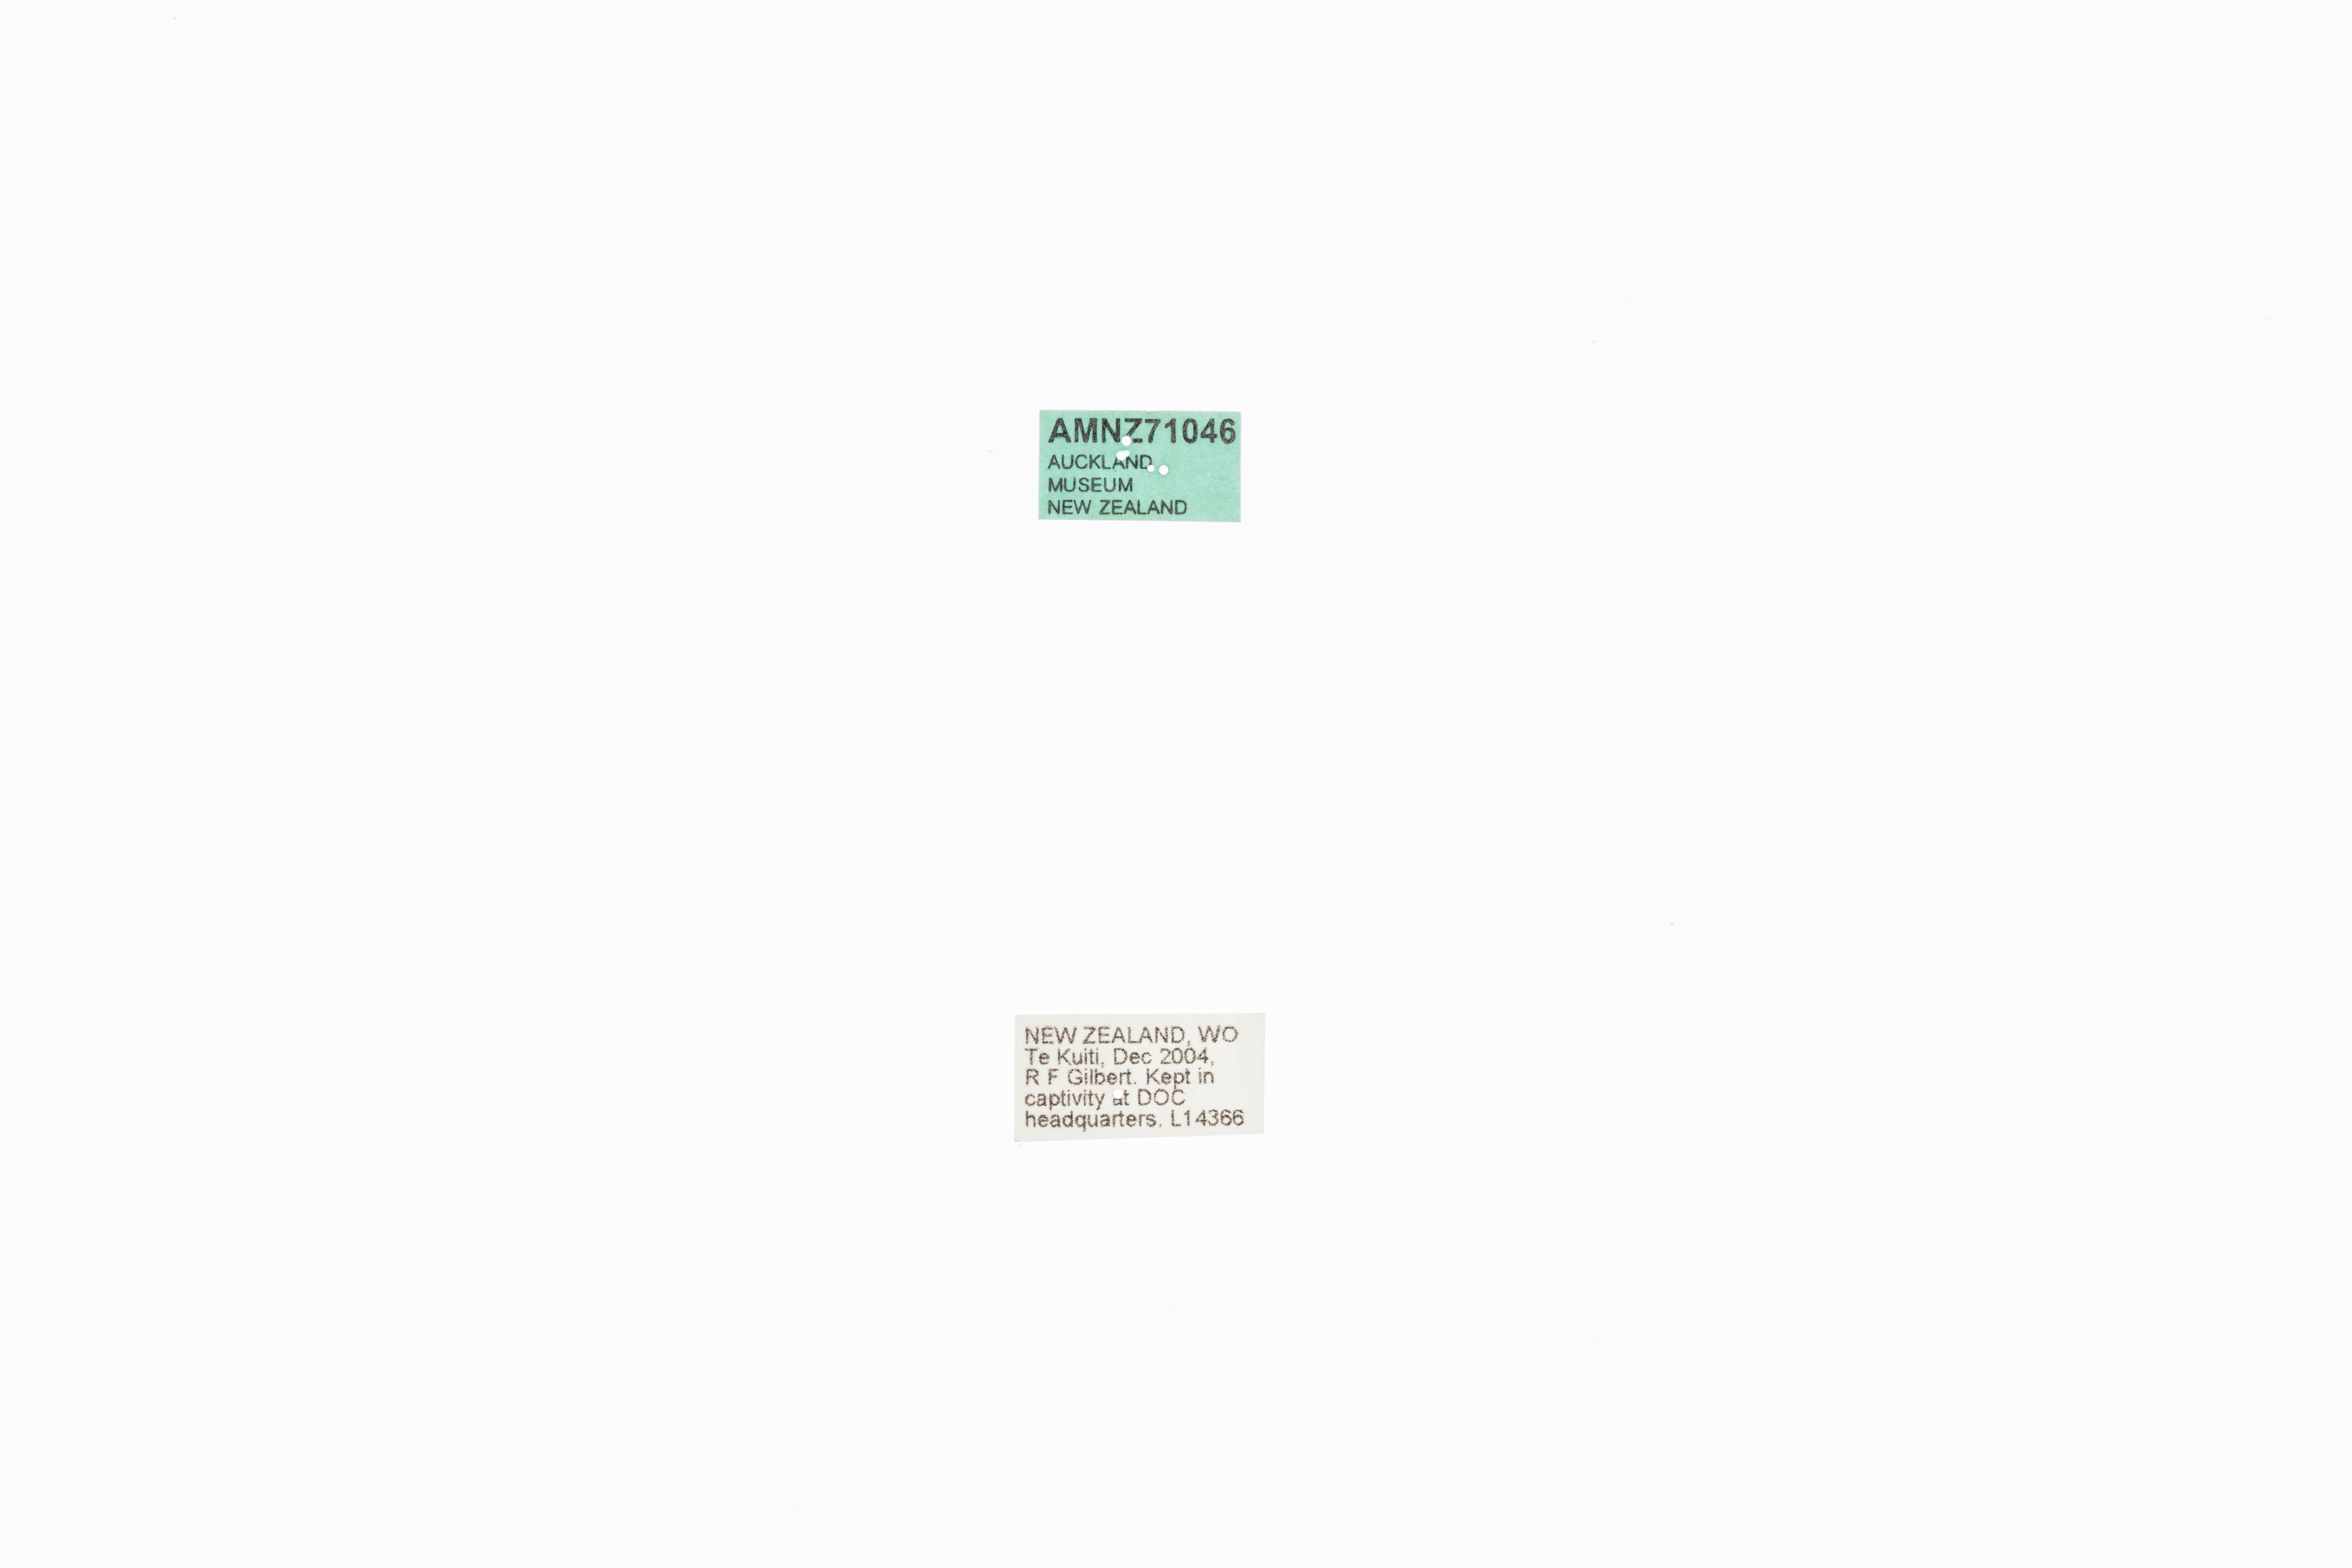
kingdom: Animalia
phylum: Arthropoda
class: Insecta
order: Orthoptera
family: Anostostomatidae
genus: Deinacrida
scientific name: Deinacrida mahoenui
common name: Mahoenui giant weta
